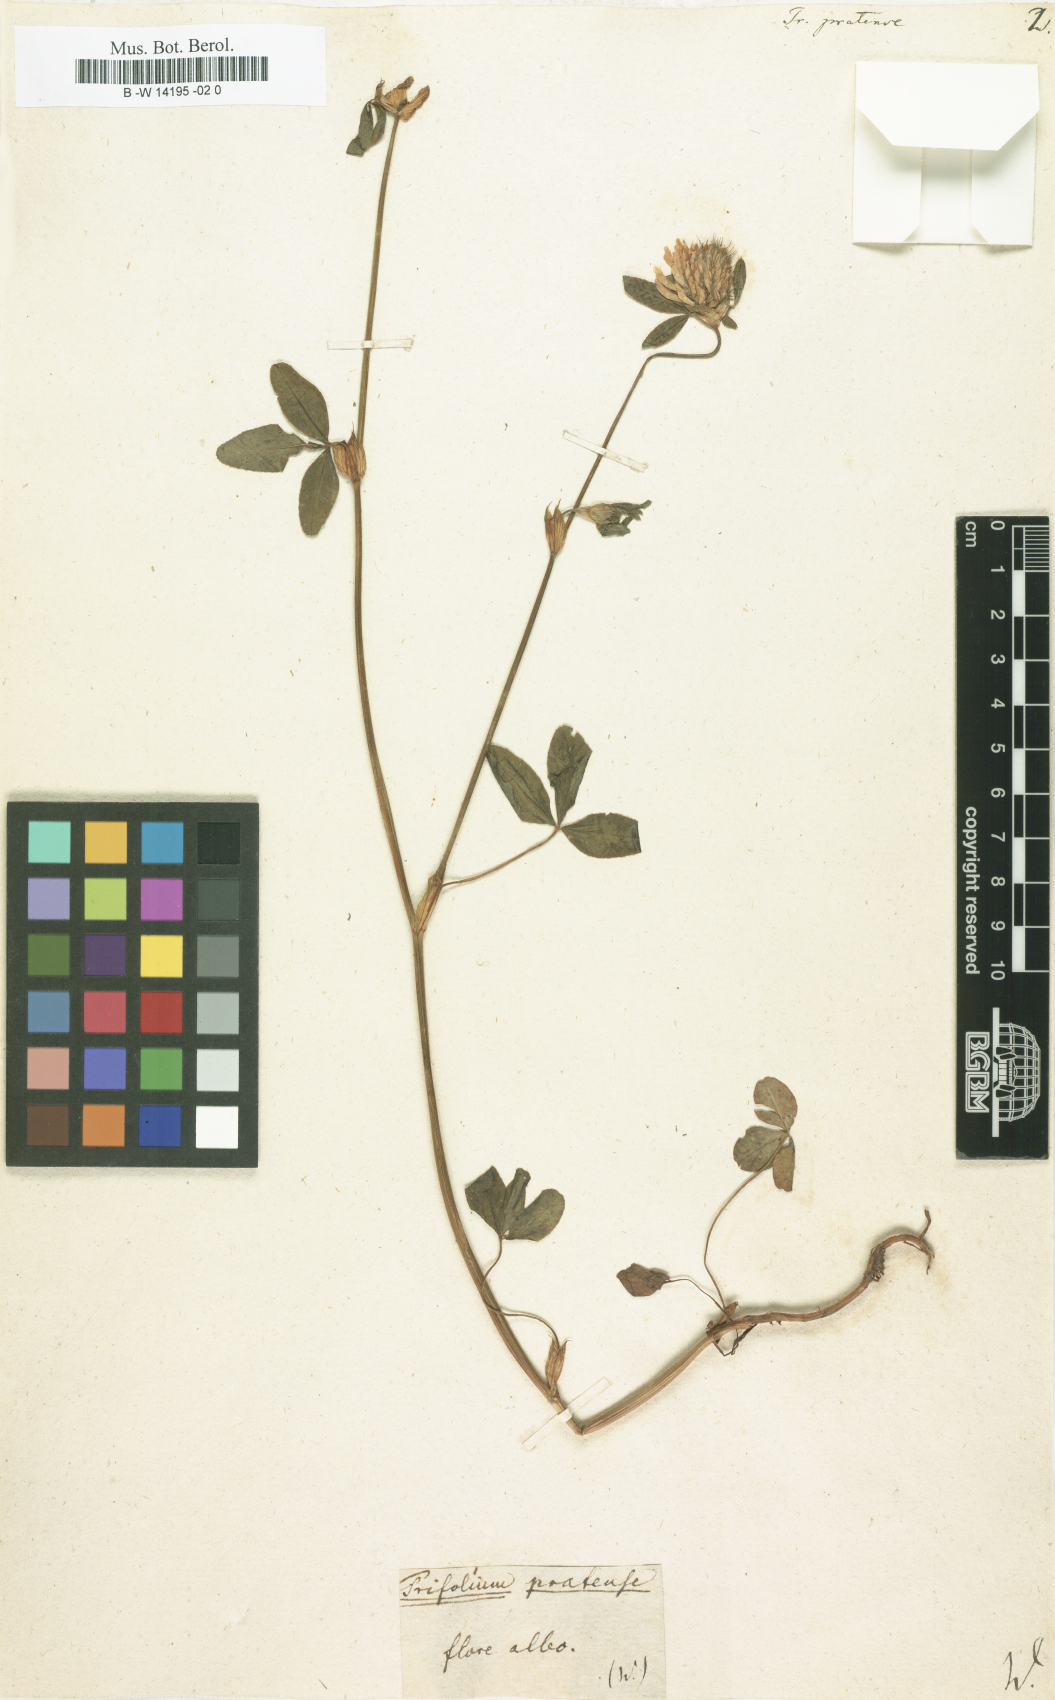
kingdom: Plantae
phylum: Tracheophyta
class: Magnoliopsida
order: Fabales
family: Fabaceae
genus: Trifolium
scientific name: Trifolium pratense
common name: Red clover
